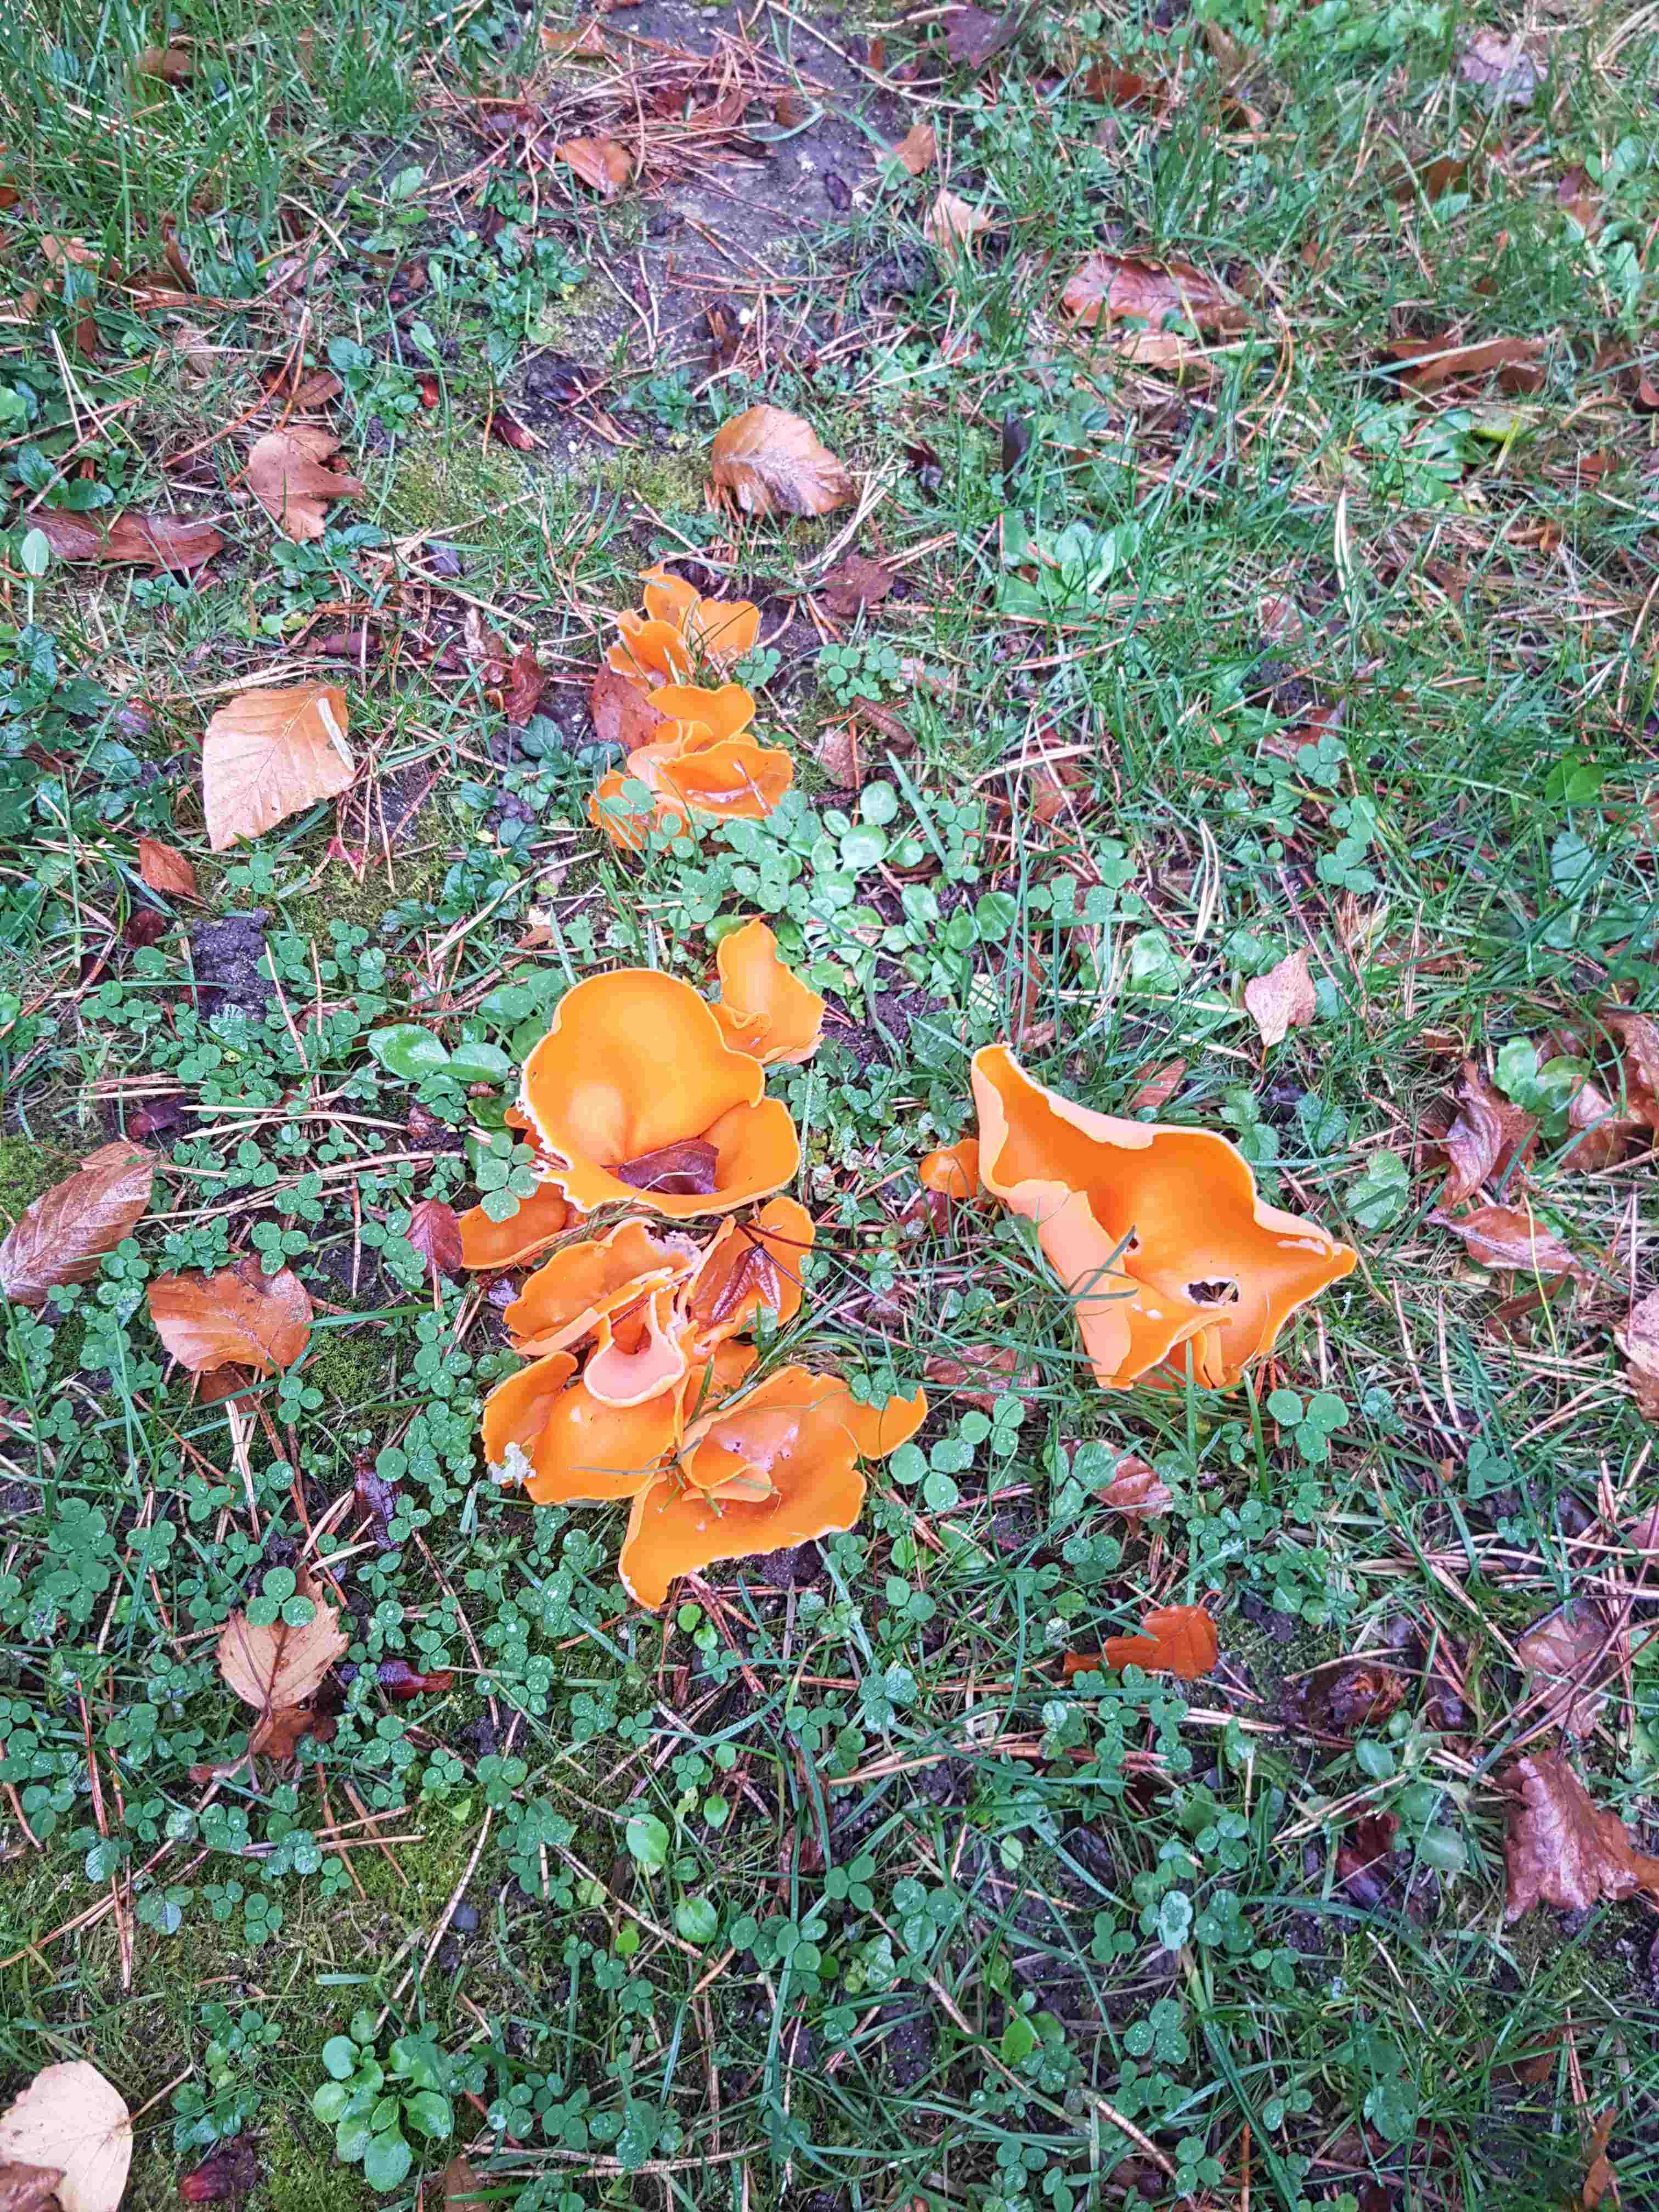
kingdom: Fungi
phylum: Ascomycota
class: Pezizomycetes
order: Pezizales
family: Pyronemataceae
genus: Aleuria
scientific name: Aleuria aurantia
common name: almindelig orangebæger
